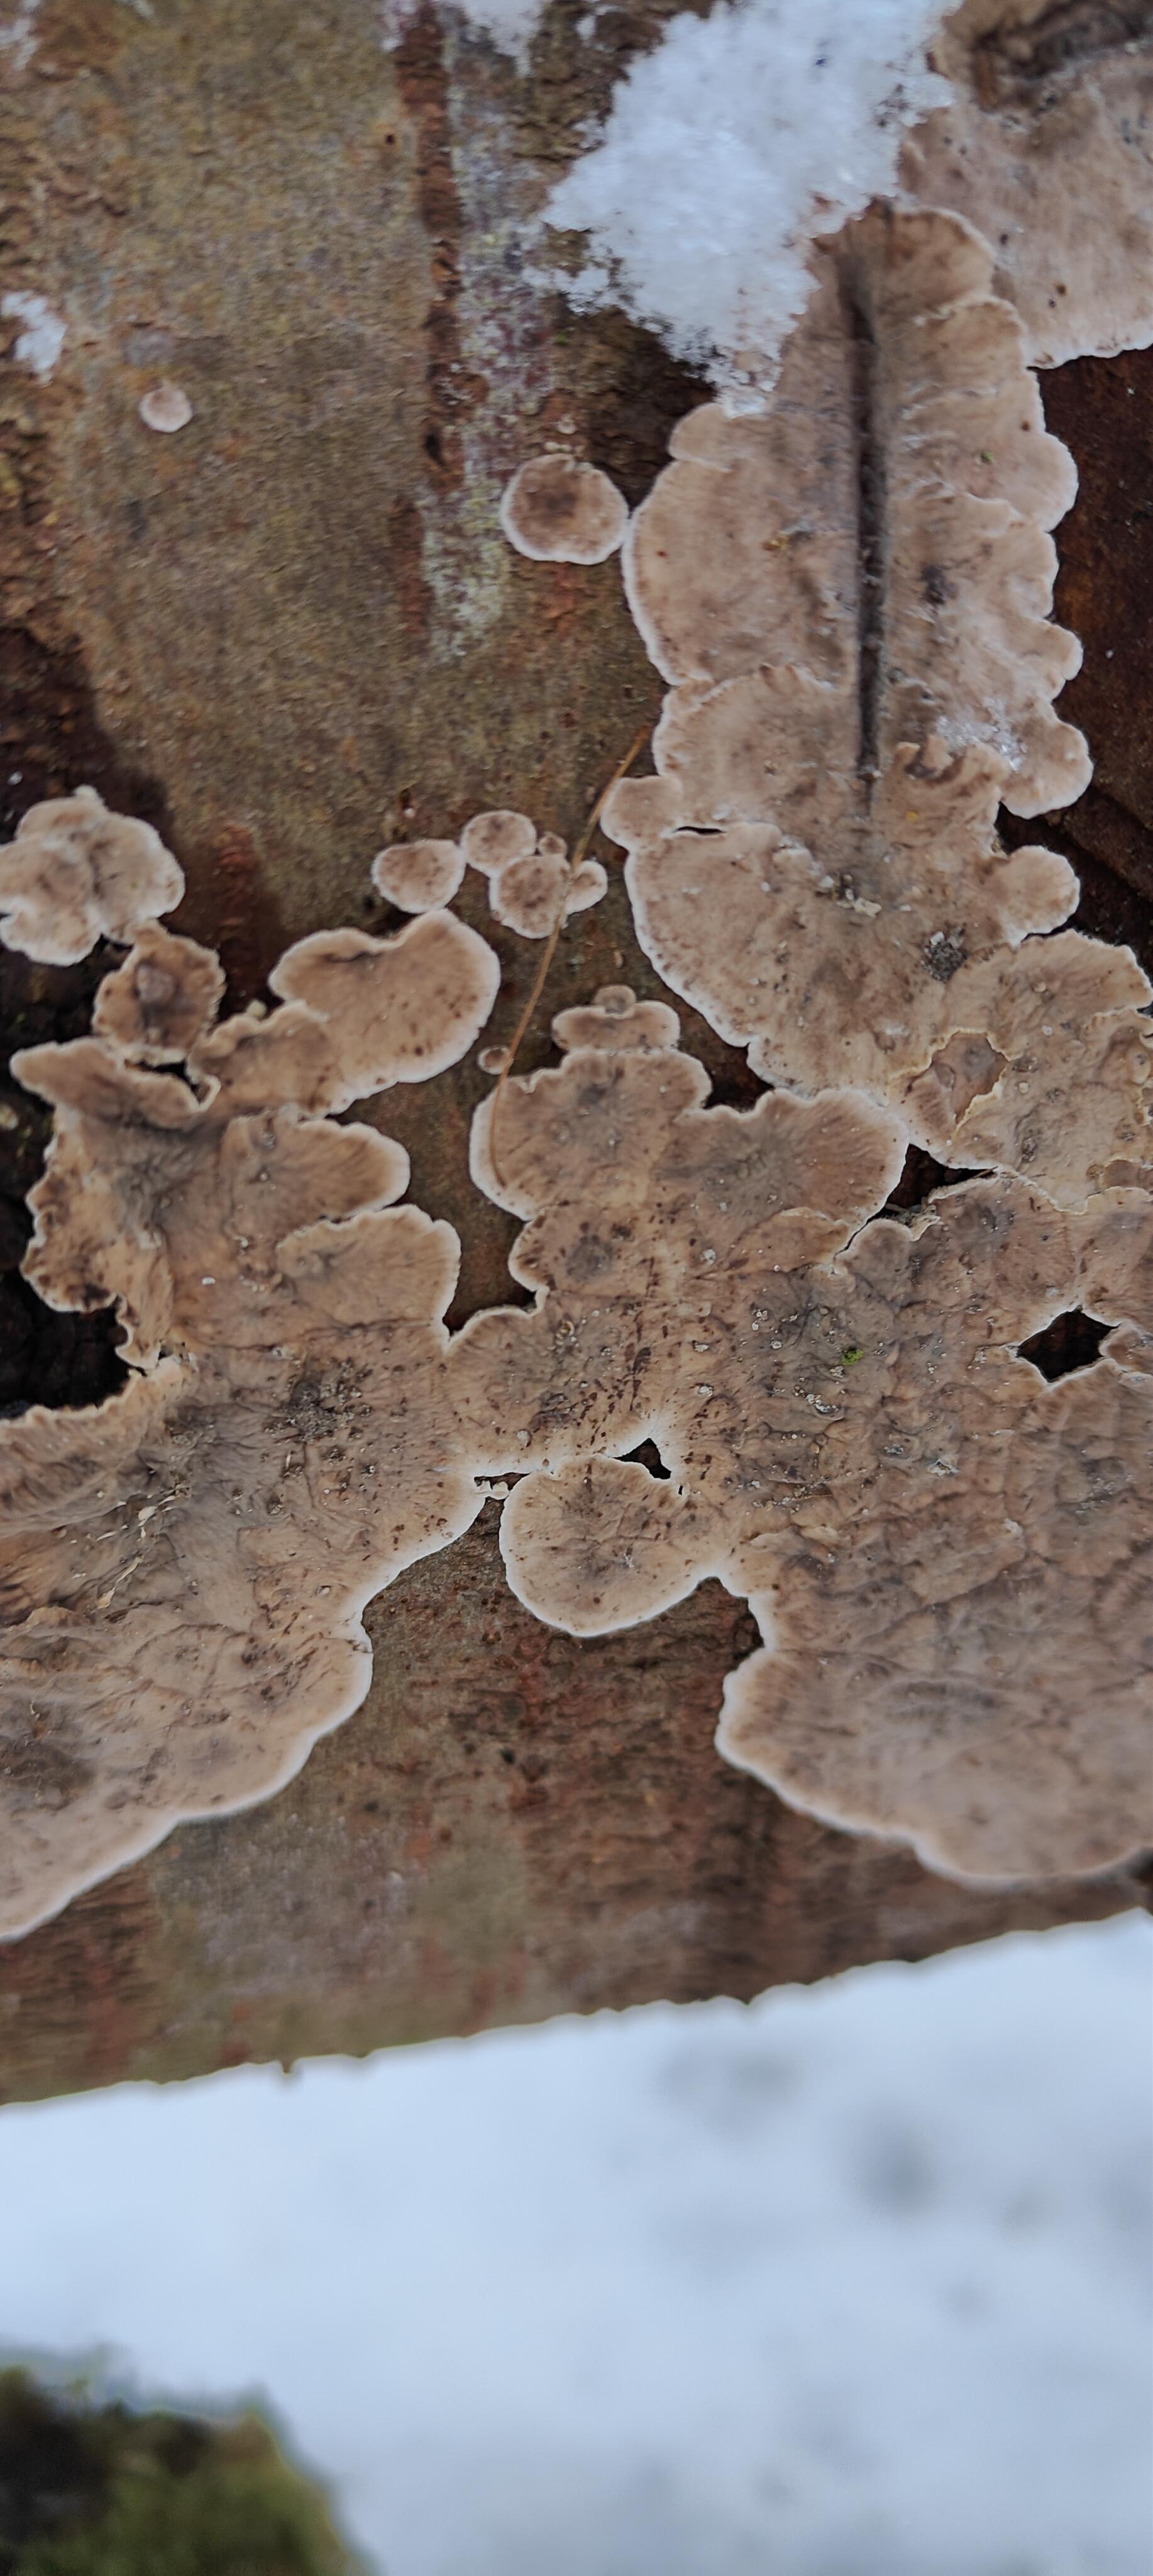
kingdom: Fungi
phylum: Basidiomycota
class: Agaricomycetes
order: Russulales
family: Stereaceae
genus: Stereum
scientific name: Stereum sanguinolentum
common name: blødende lædersvamp
